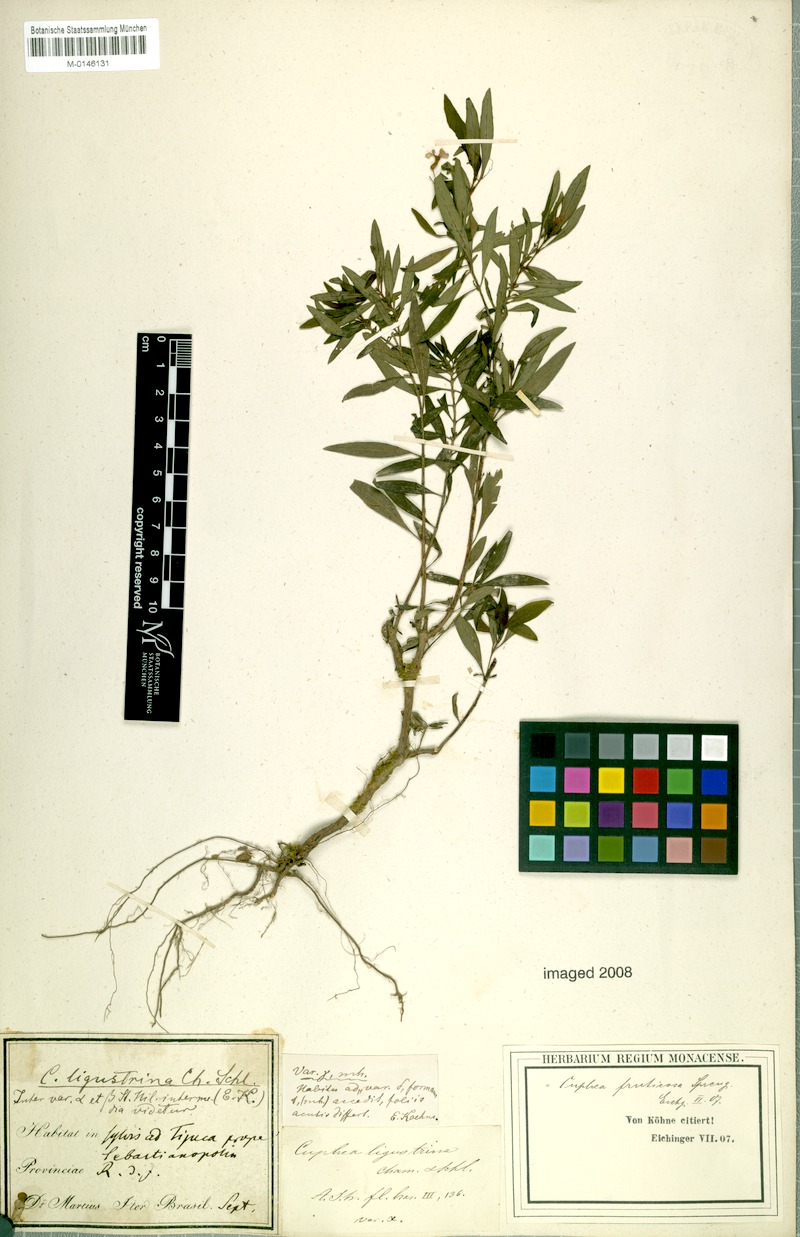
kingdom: Plantae
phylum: Tracheophyta
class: Magnoliopsida
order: Myrtales
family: Lythraceae
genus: Cuphea
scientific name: Cuphea fruticosa
